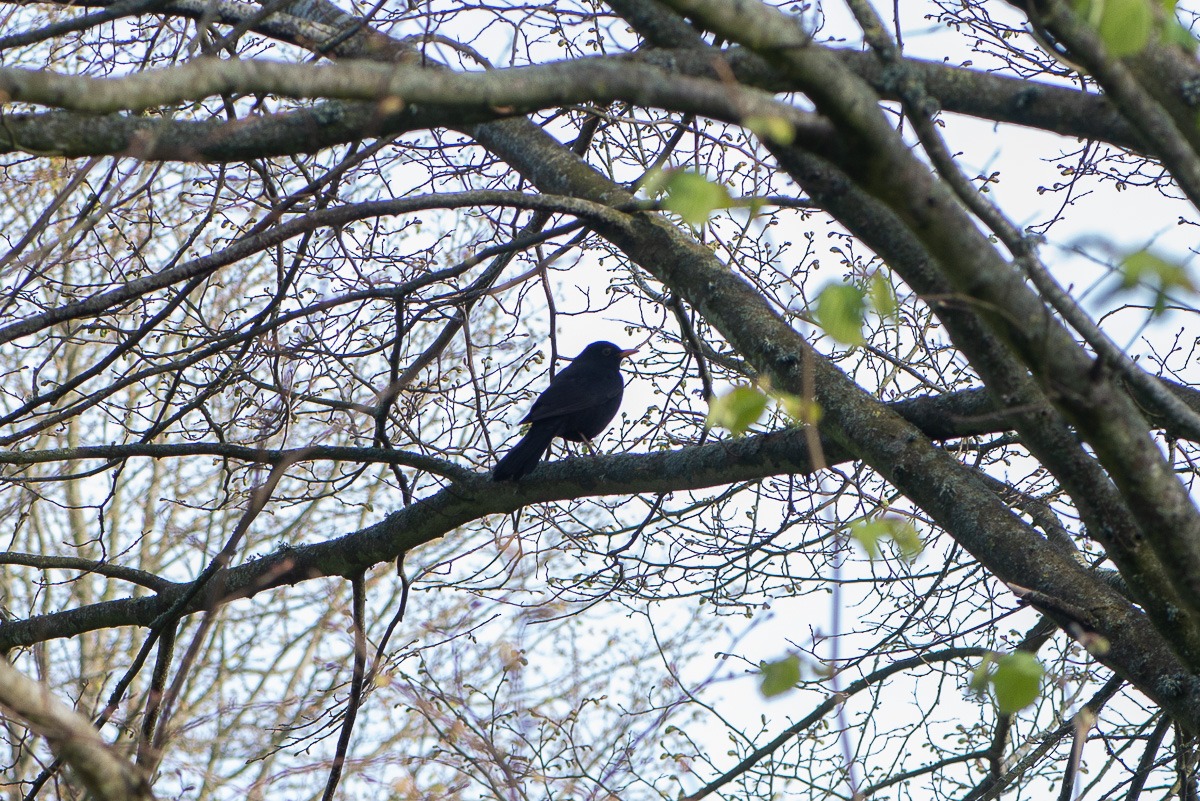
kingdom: Animalia
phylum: Chordata
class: Aves
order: Passeriformes
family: Turdidae
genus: Turdus
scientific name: Turdus merula
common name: Solsort
